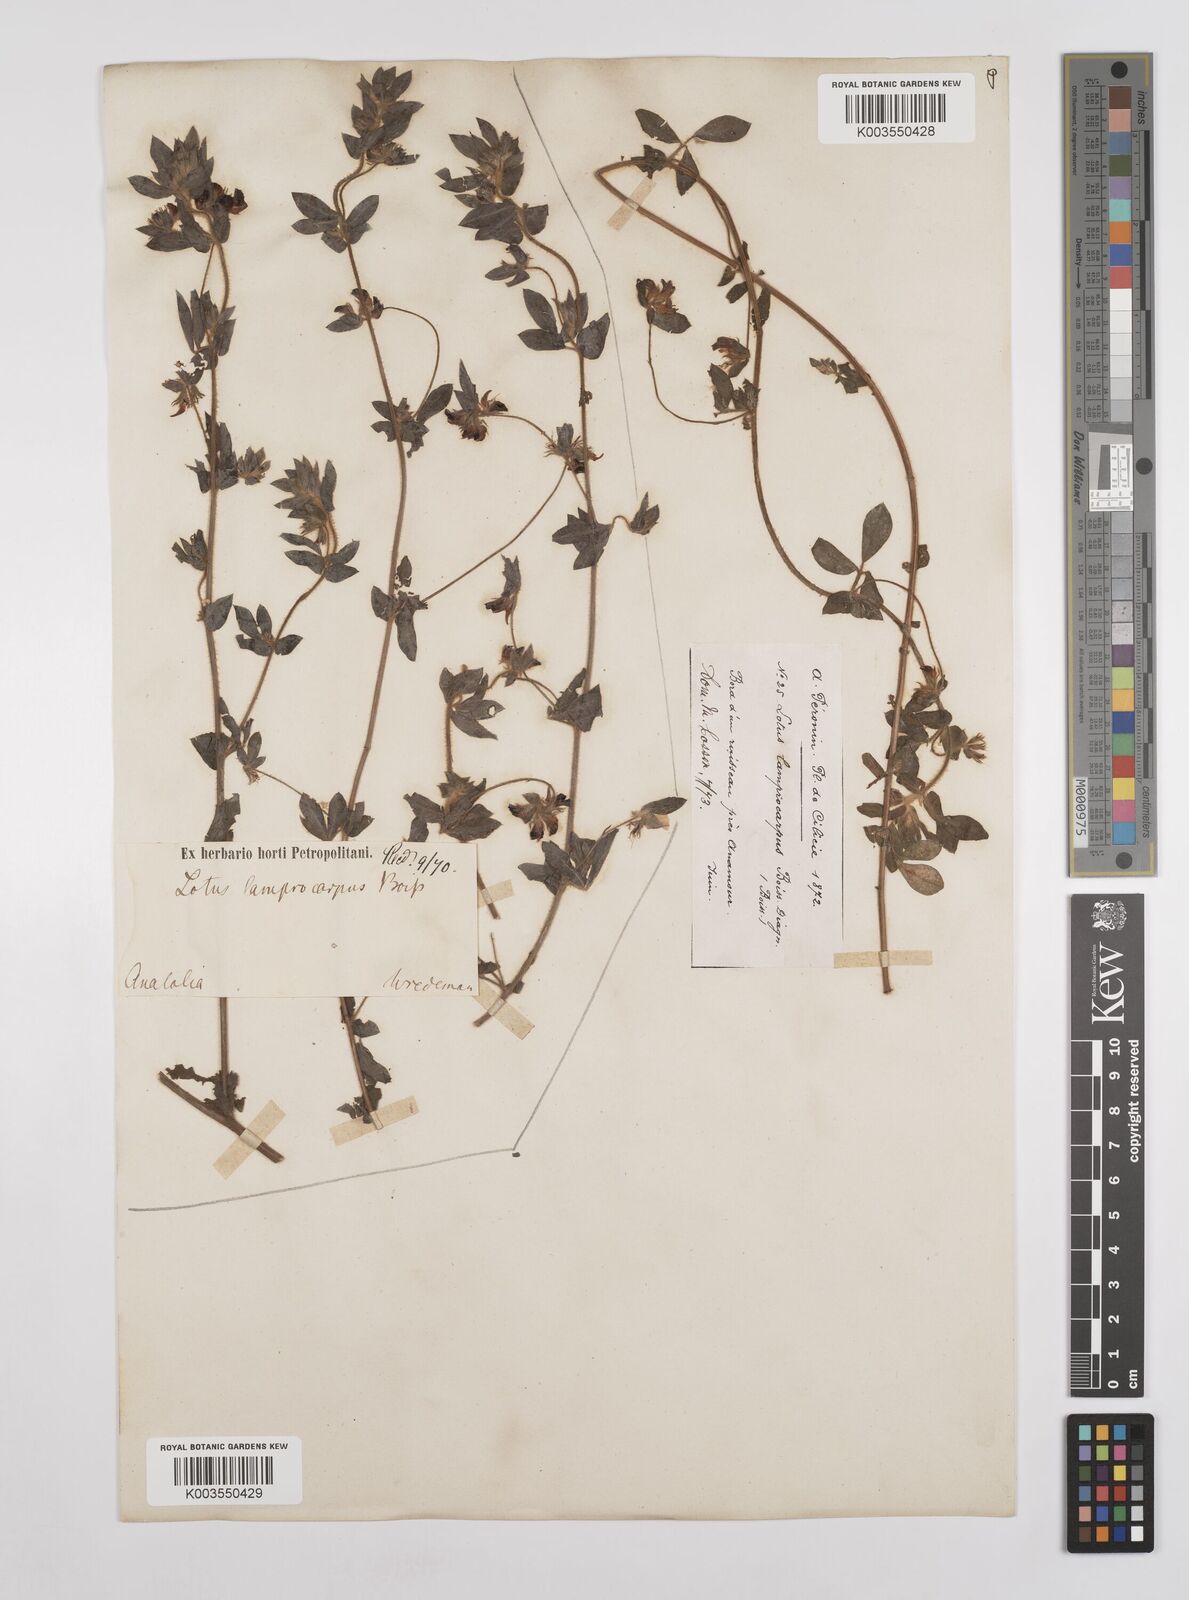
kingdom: Plantae
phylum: Tracheophyta
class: Magnoliopsida
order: Fabales
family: Fabaceae
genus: Lotus
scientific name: Lotus palustris
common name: Large birds-foot trefoil
